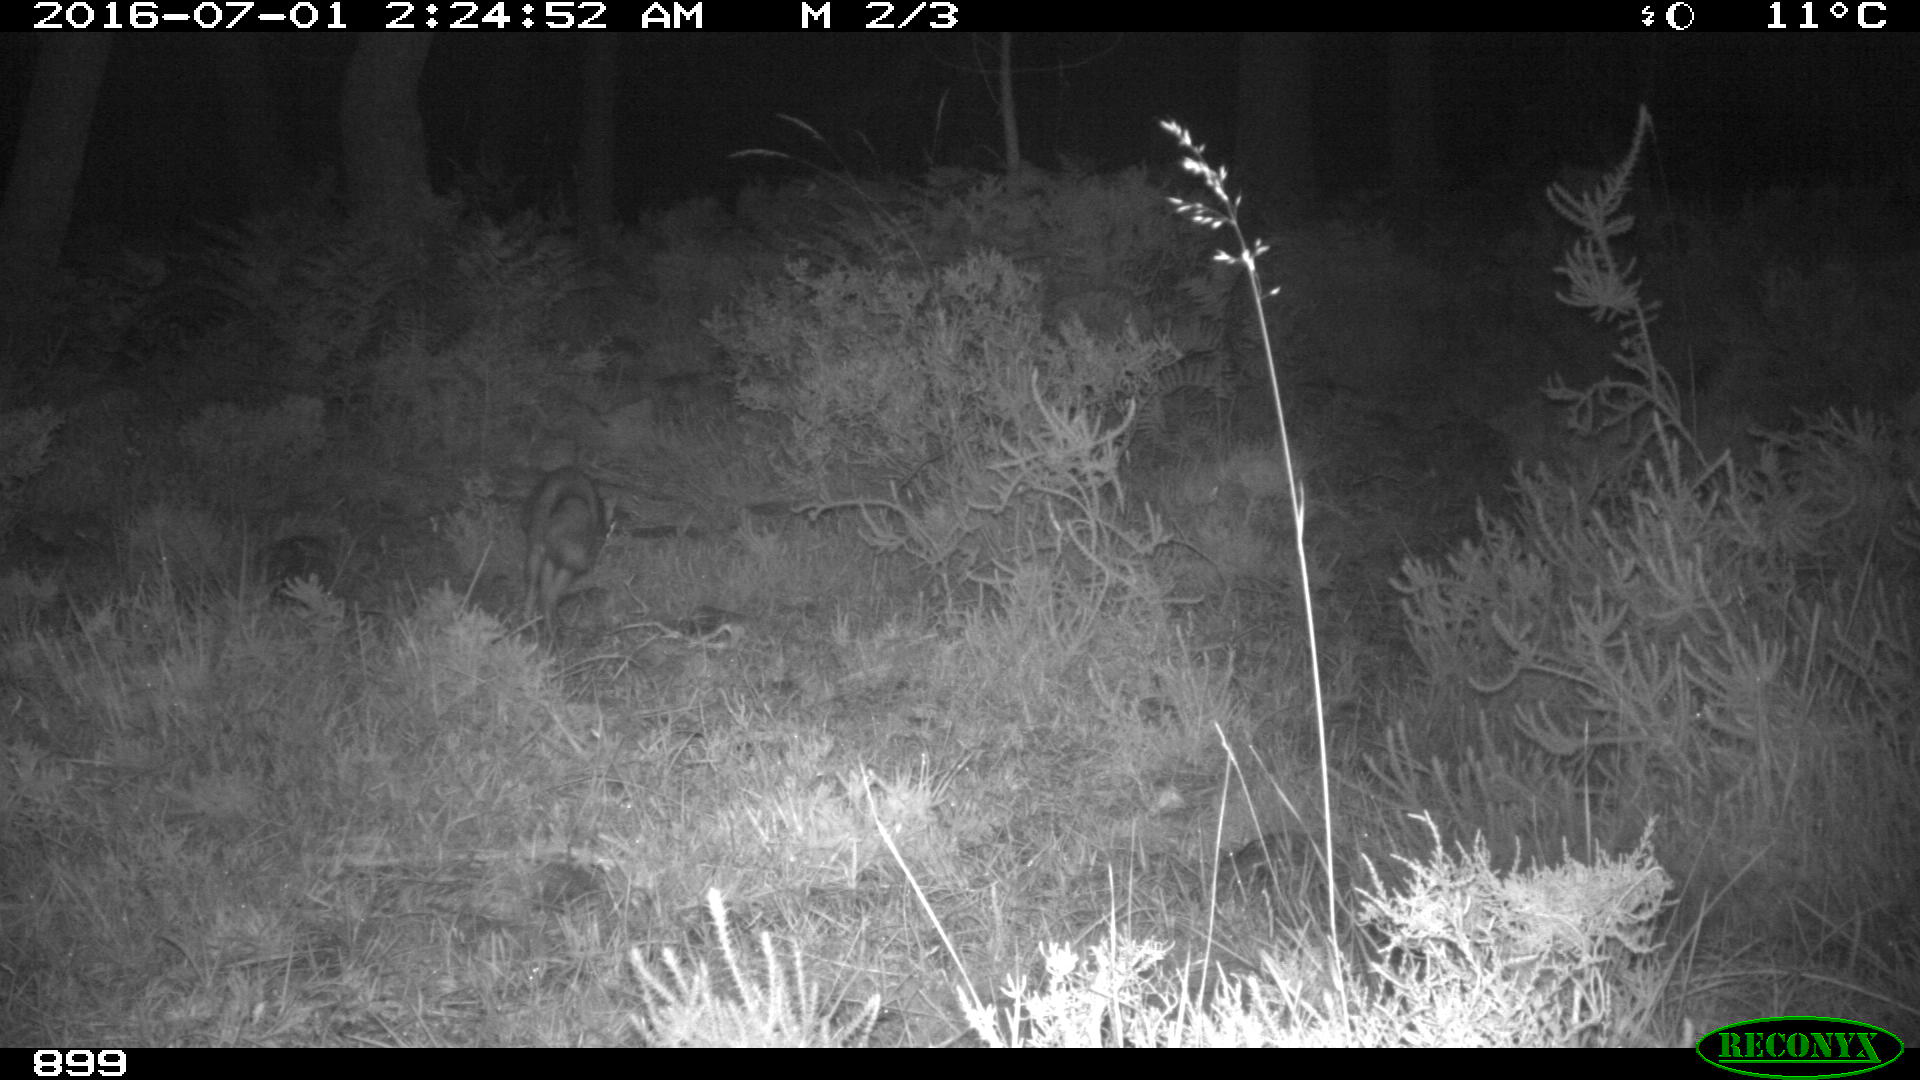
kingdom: Animalia
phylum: Chordata
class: Mammalia
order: Carnivora
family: Canidae
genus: Vulpes
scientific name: Vulpes vulpes
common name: Red fox
